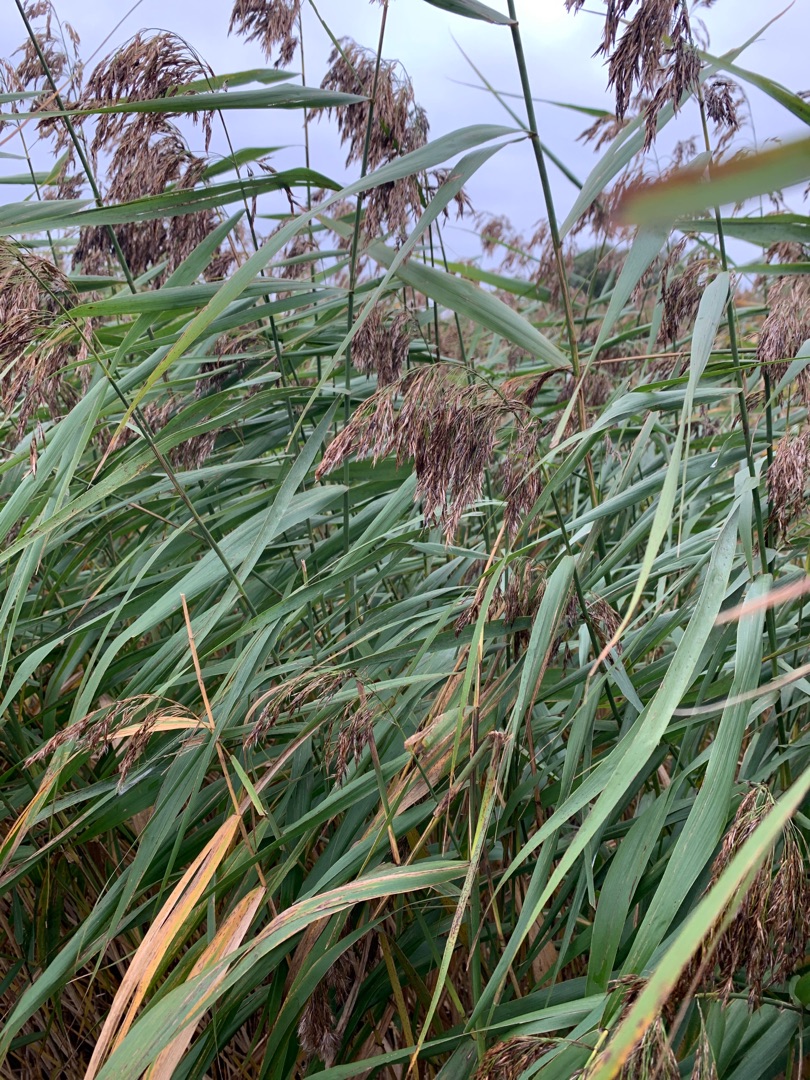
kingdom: Plantae
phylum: Tracheophyta
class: Liliopsida
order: Poales
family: Poaceae
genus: Phragmites
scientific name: Phragmites australis
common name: Tagrør
